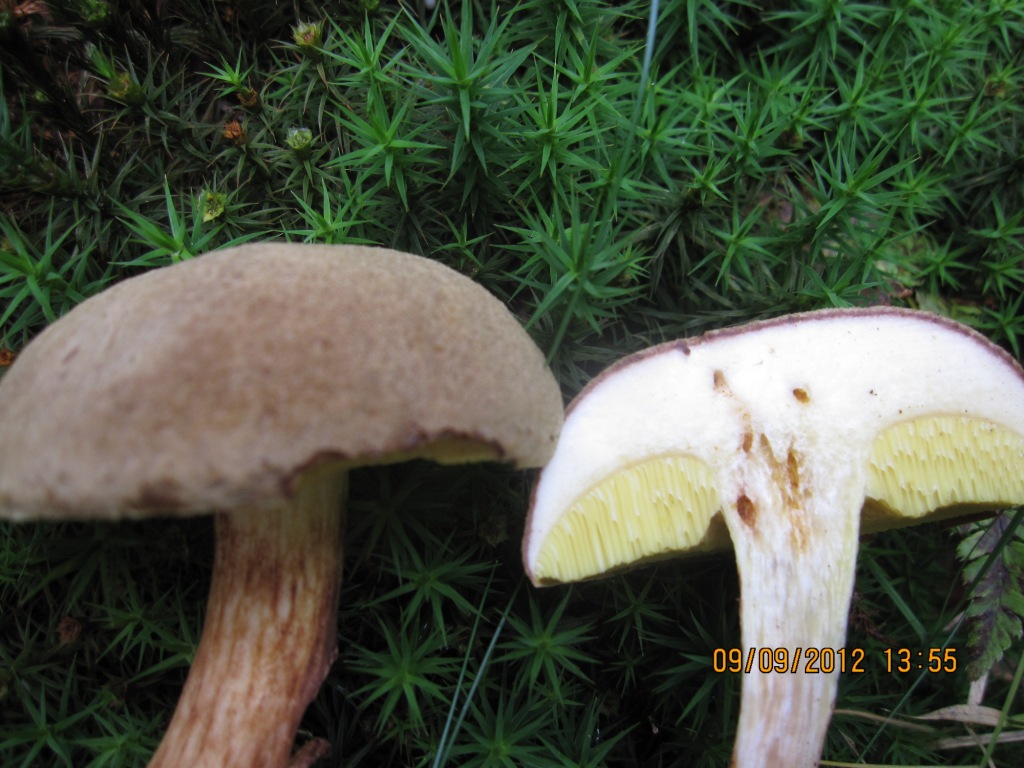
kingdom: Fungi
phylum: Basidiomycota
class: Agaricomycetes
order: Boletales
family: Boletaceae
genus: Xerocomus
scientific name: Xerocomus ferrugineus
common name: vaskeskinds-rørhat
